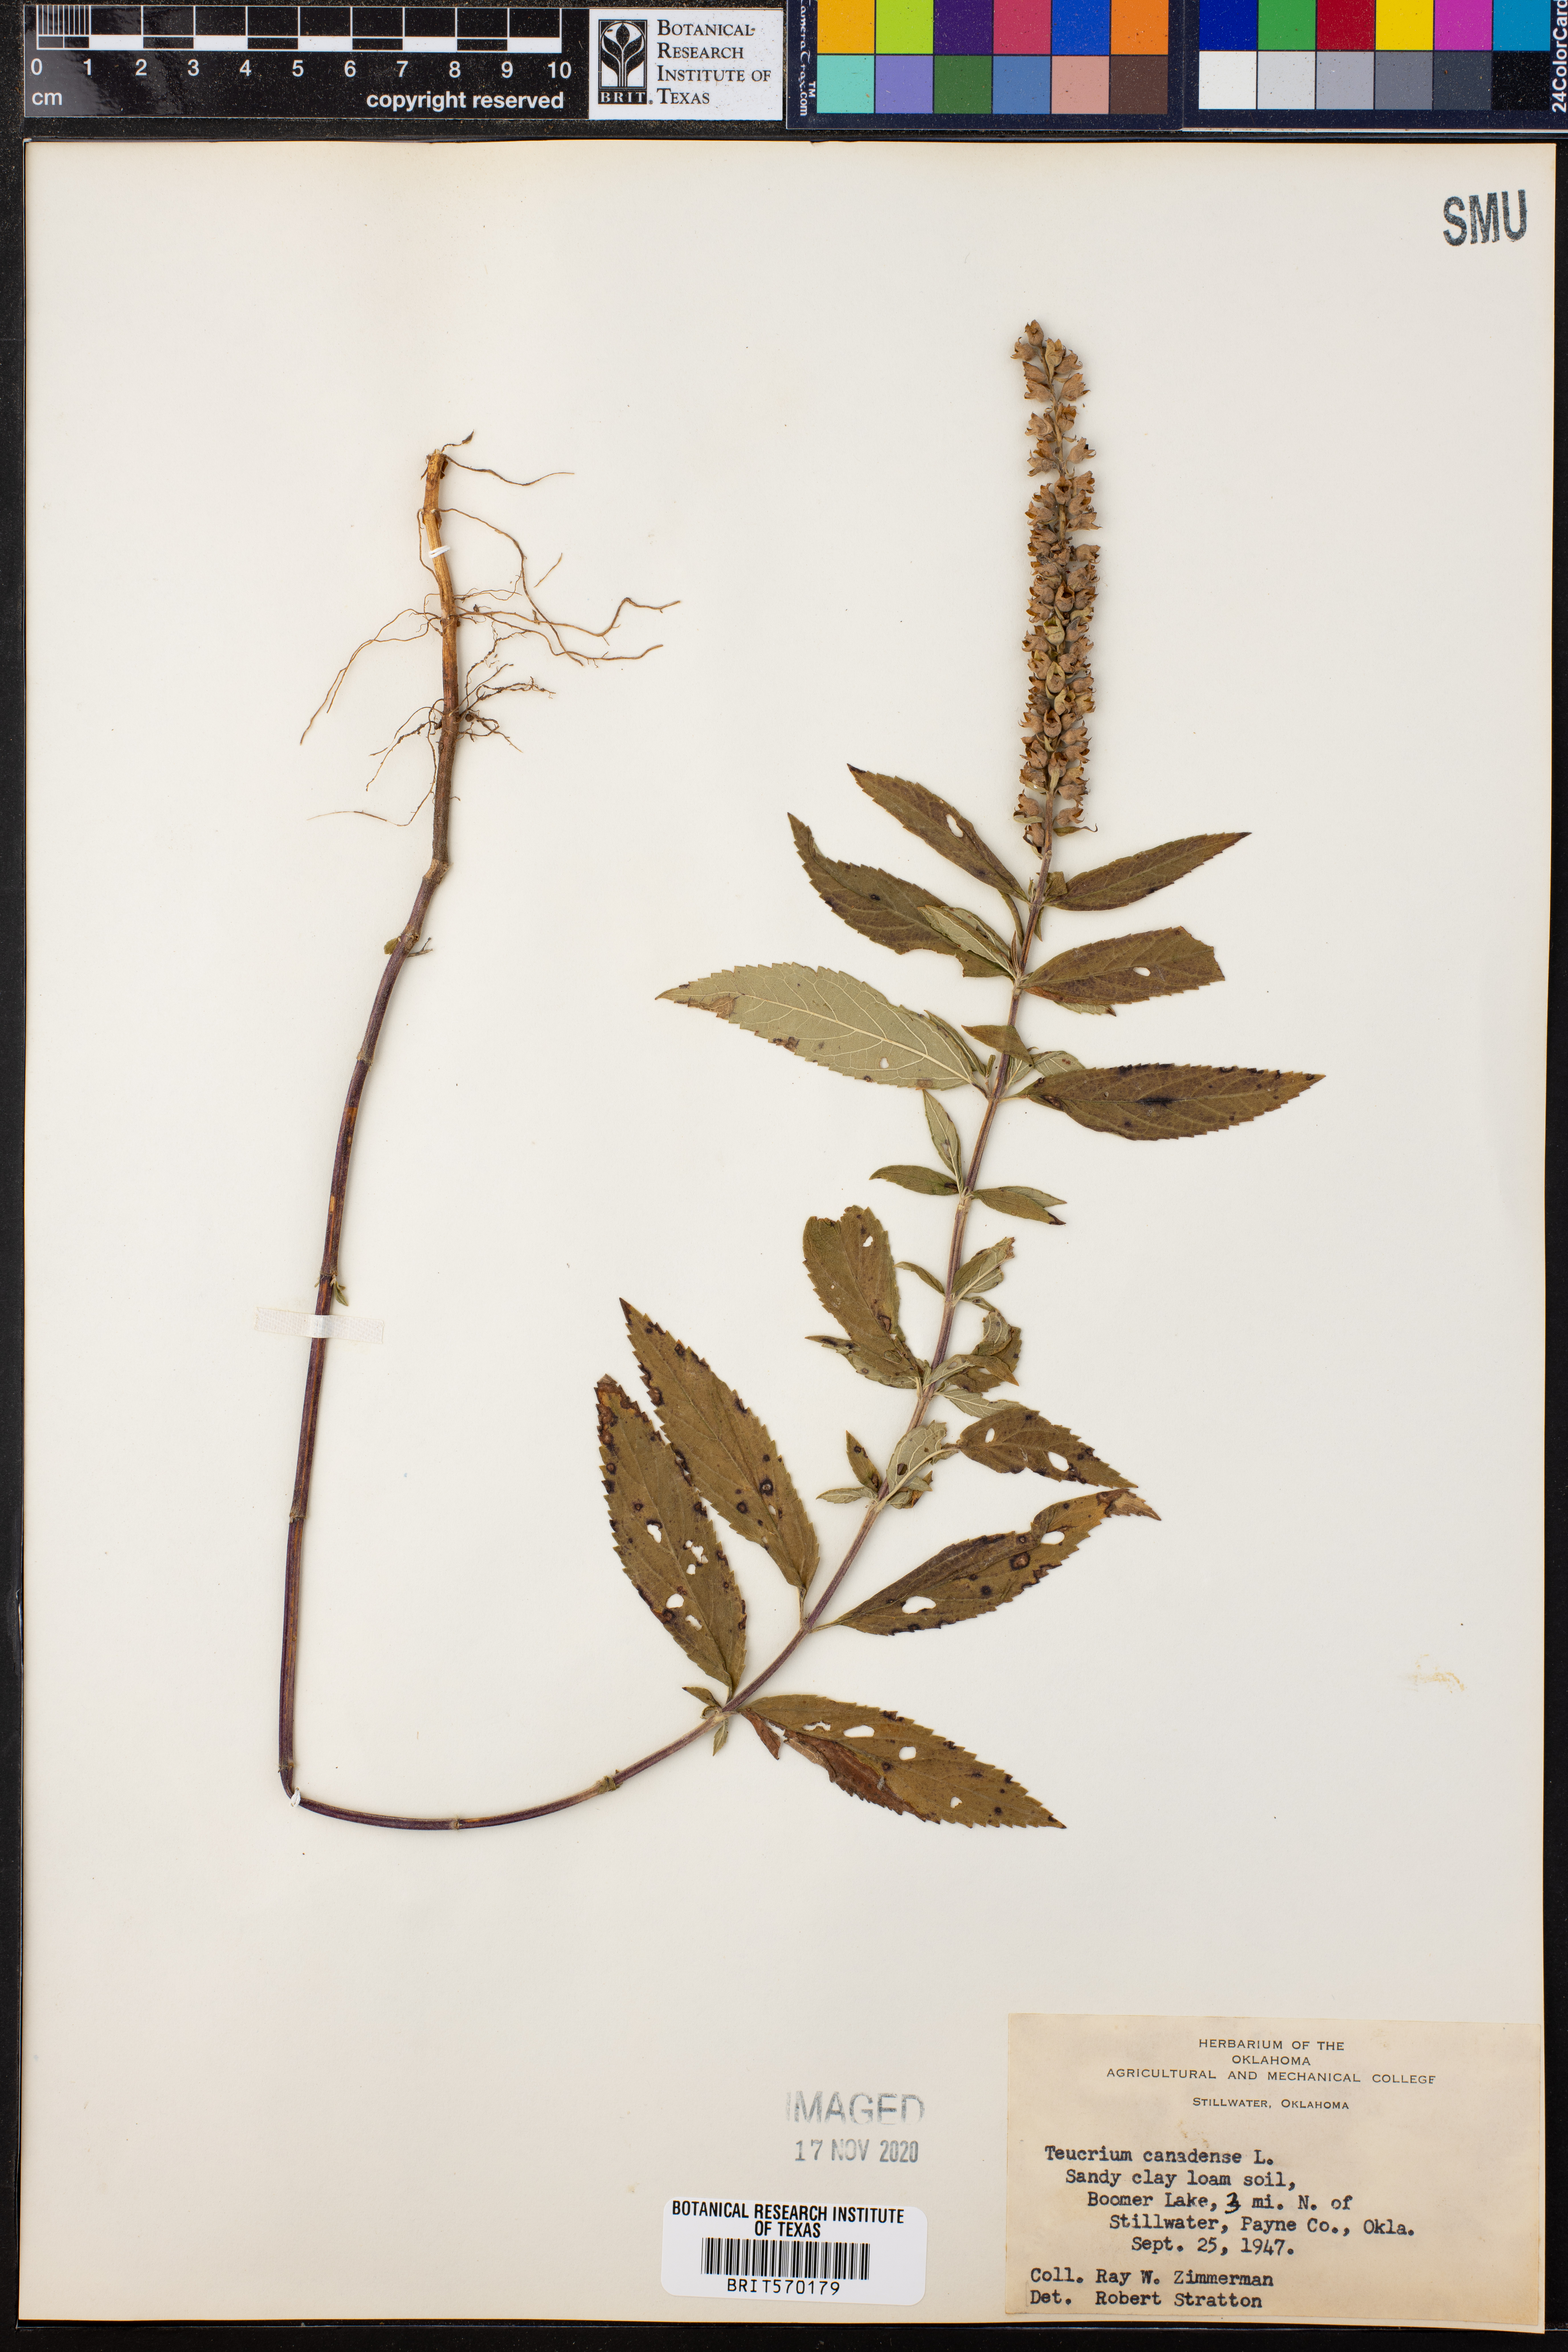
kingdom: Plantae
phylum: Tracheophyta
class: Magnoliopsida
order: Lamiales
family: Lamiaceae
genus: Teucrium
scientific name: Teucrium canadense
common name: American germander
